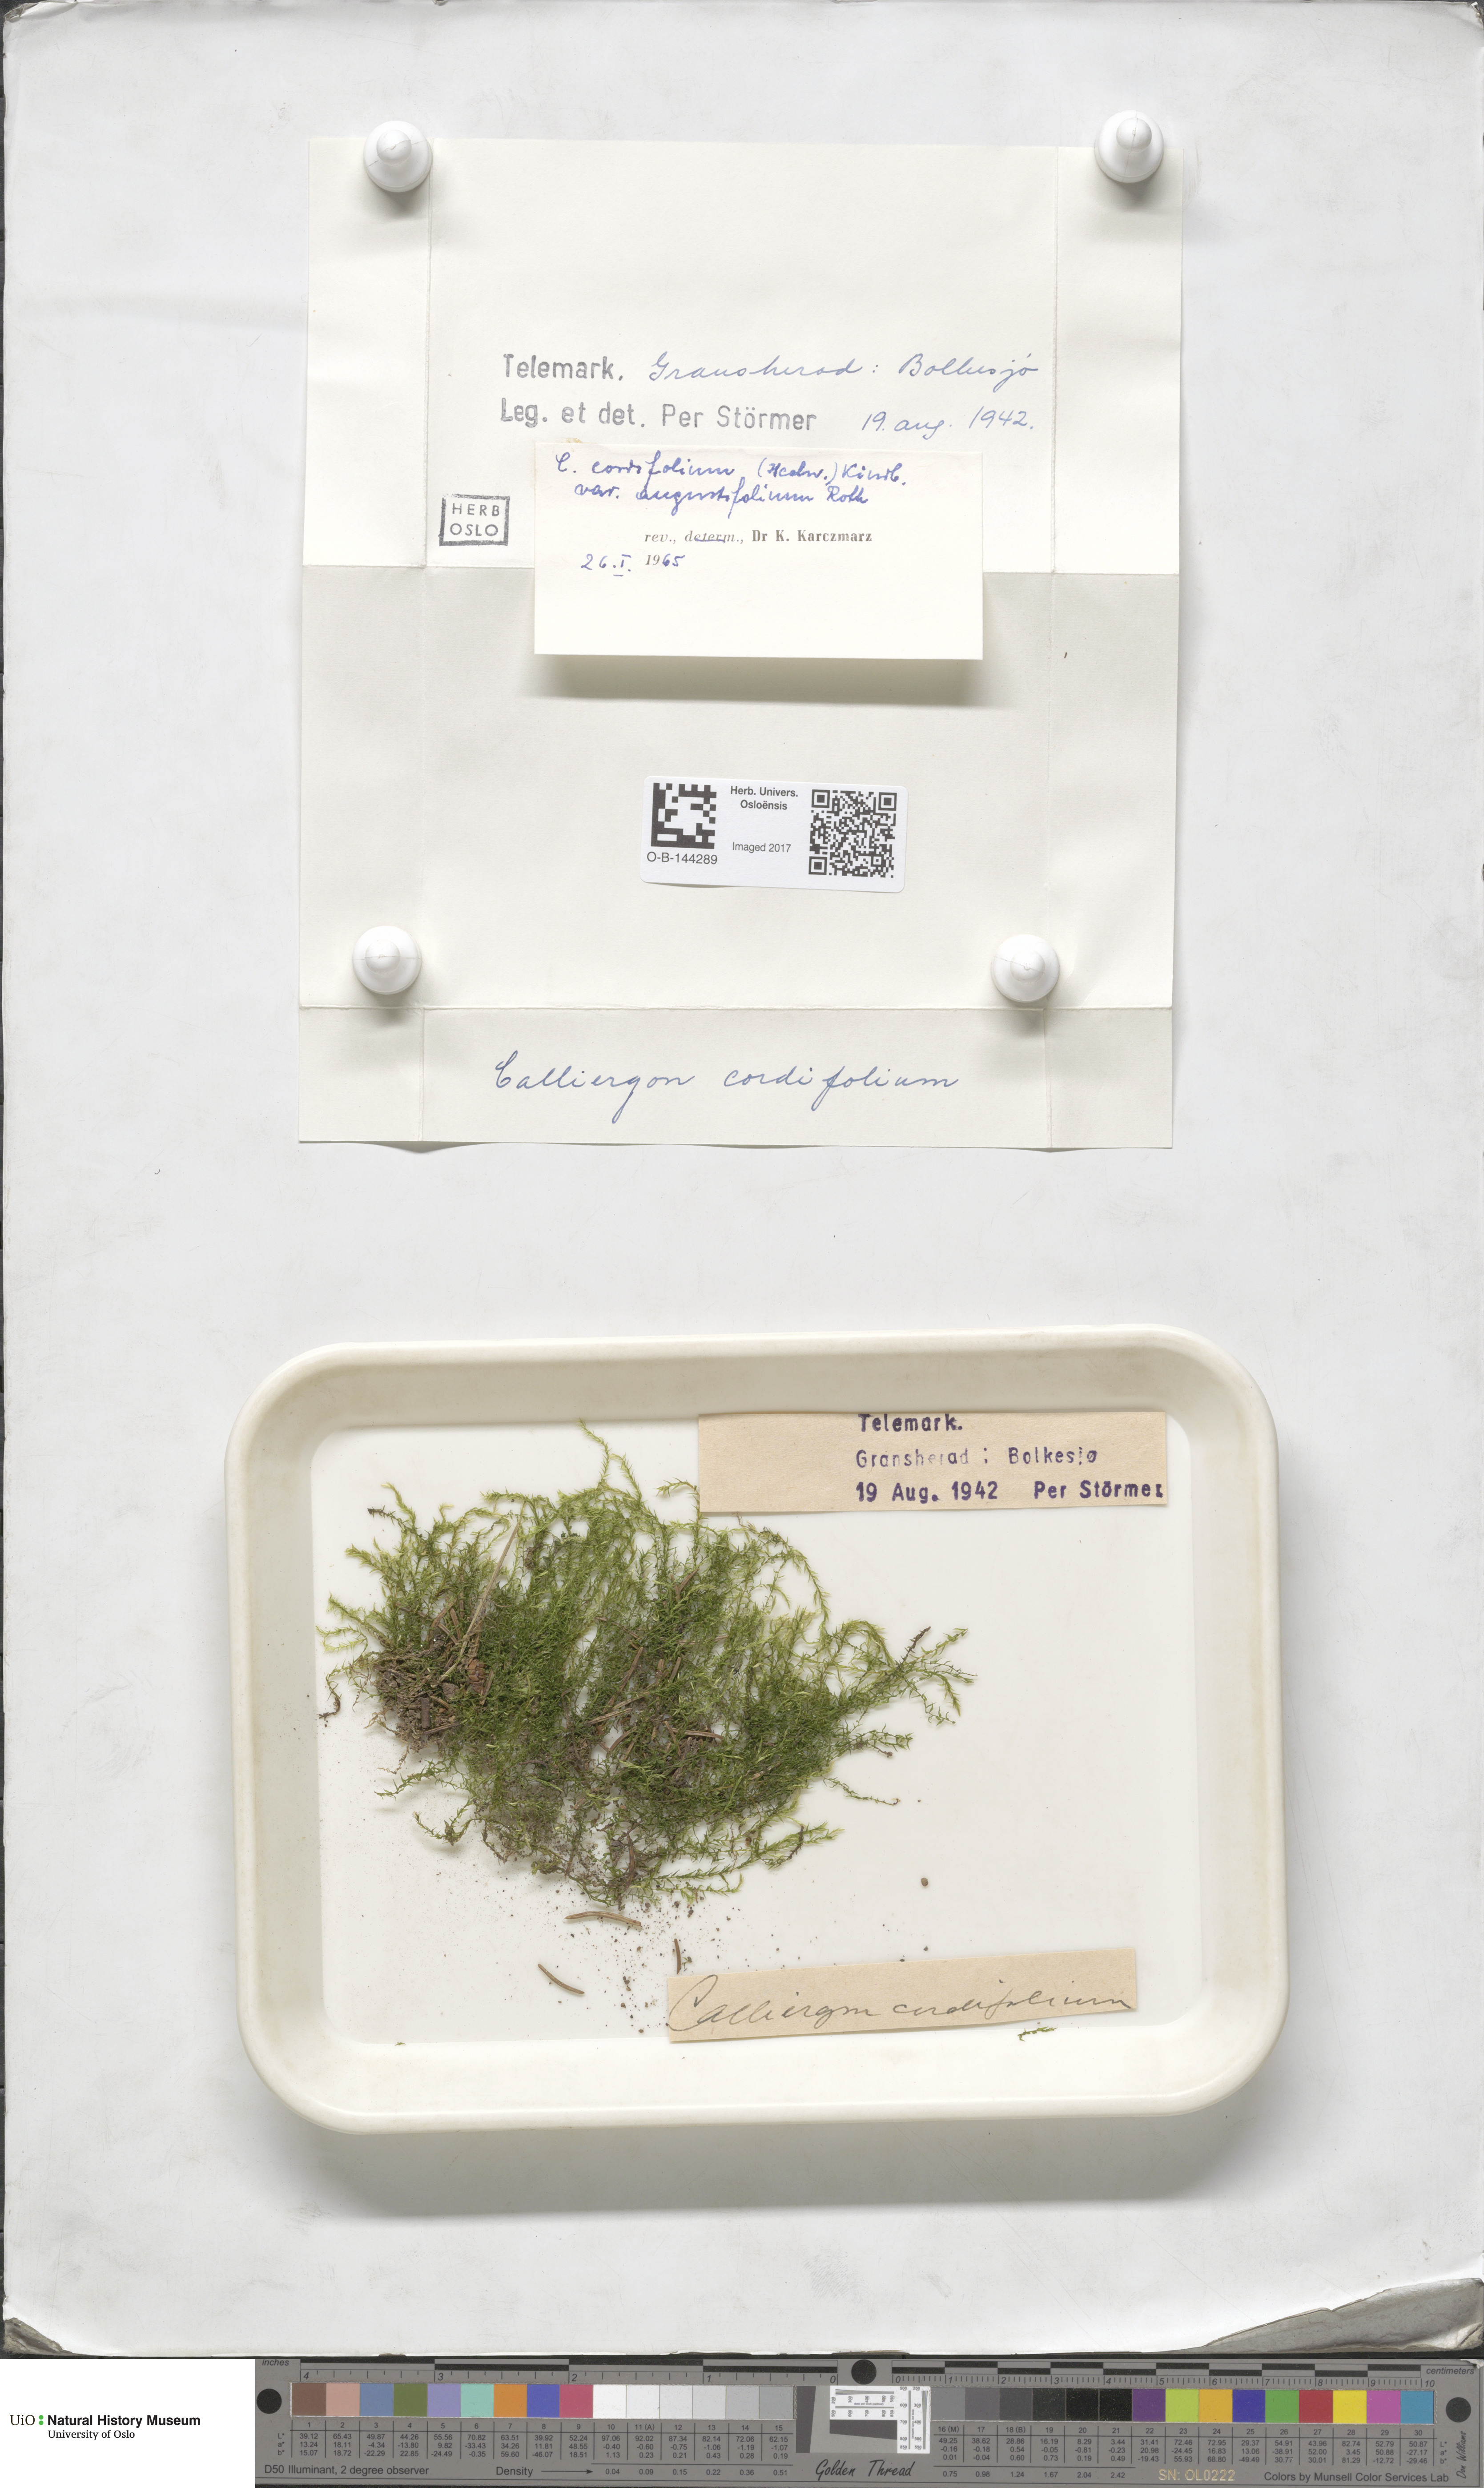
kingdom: Plantae
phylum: Bryophyta
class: Bryopsida
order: Hypnales
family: Calliergonaceae
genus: Calliergon
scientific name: Calliergon cordifolium
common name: Heart-leaved spear moss
